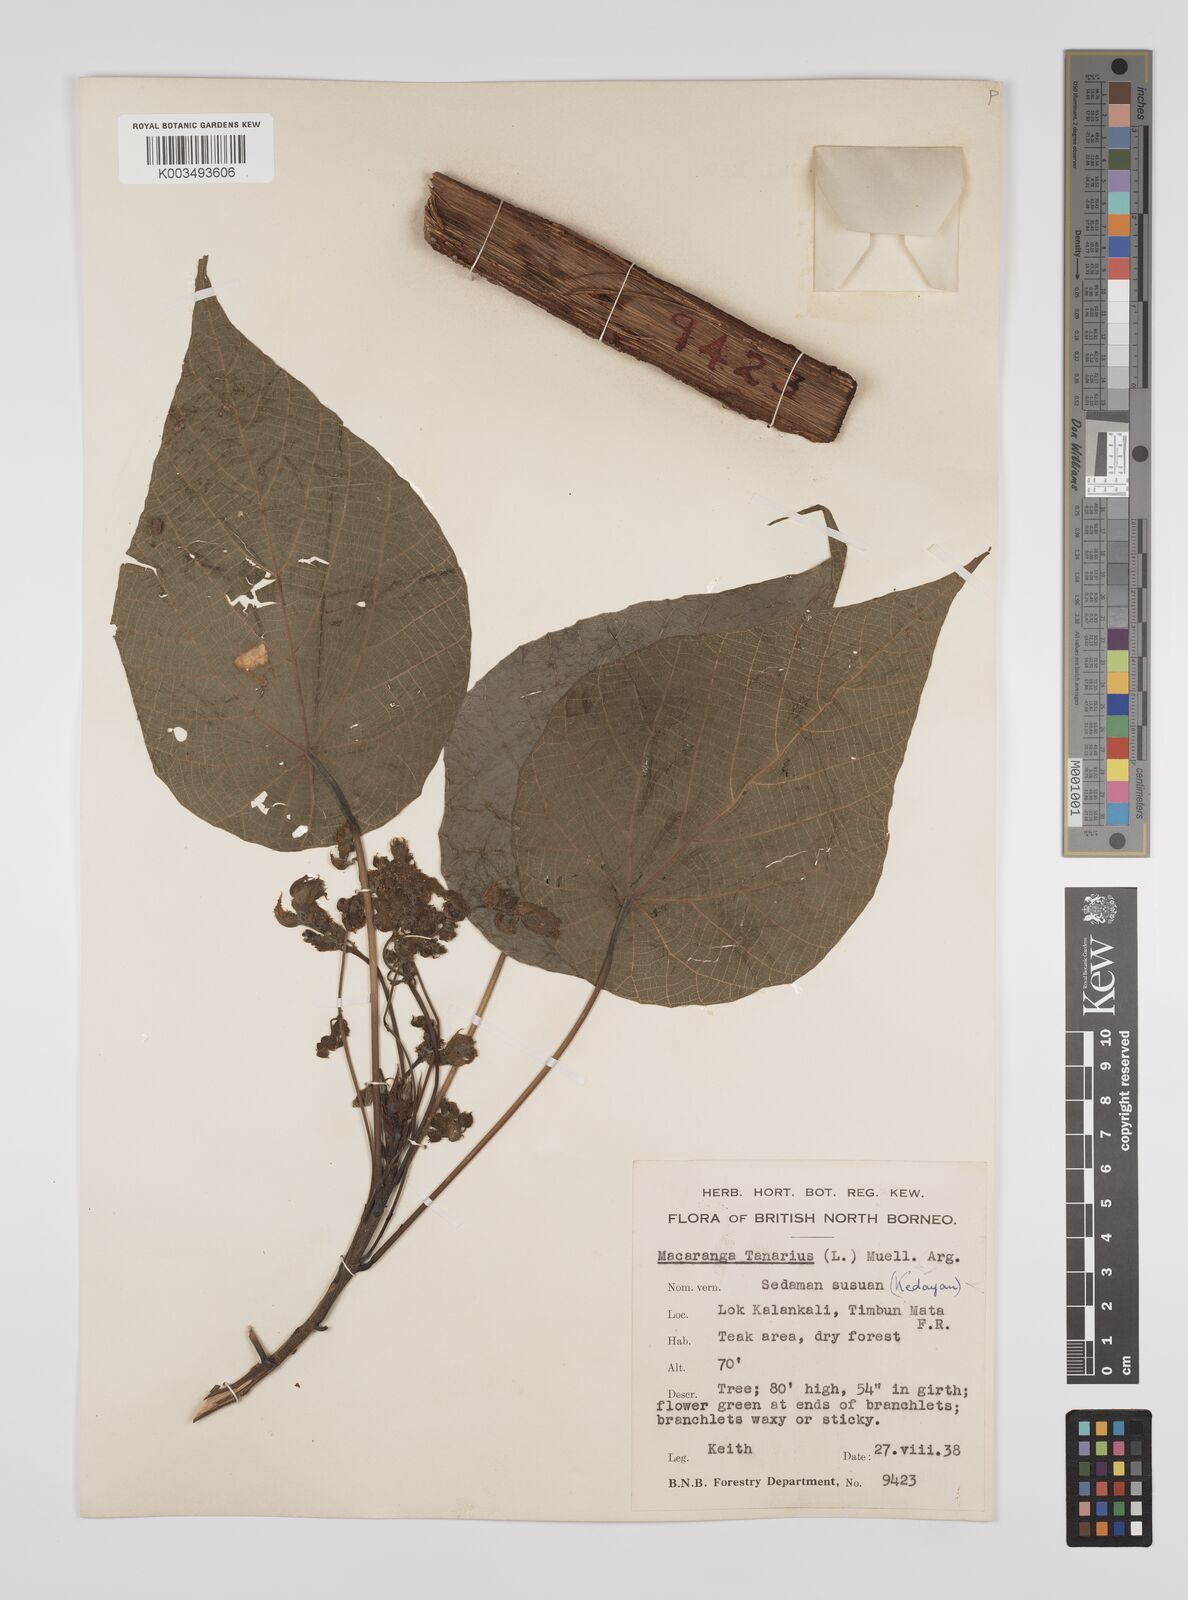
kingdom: Plantae
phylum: Tracheophyta
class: Magnoliopsida
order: Malpighiales
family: Euphorbiaceae
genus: Macaranga
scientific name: Macaranga tanarius
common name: Parasol leaf tree
